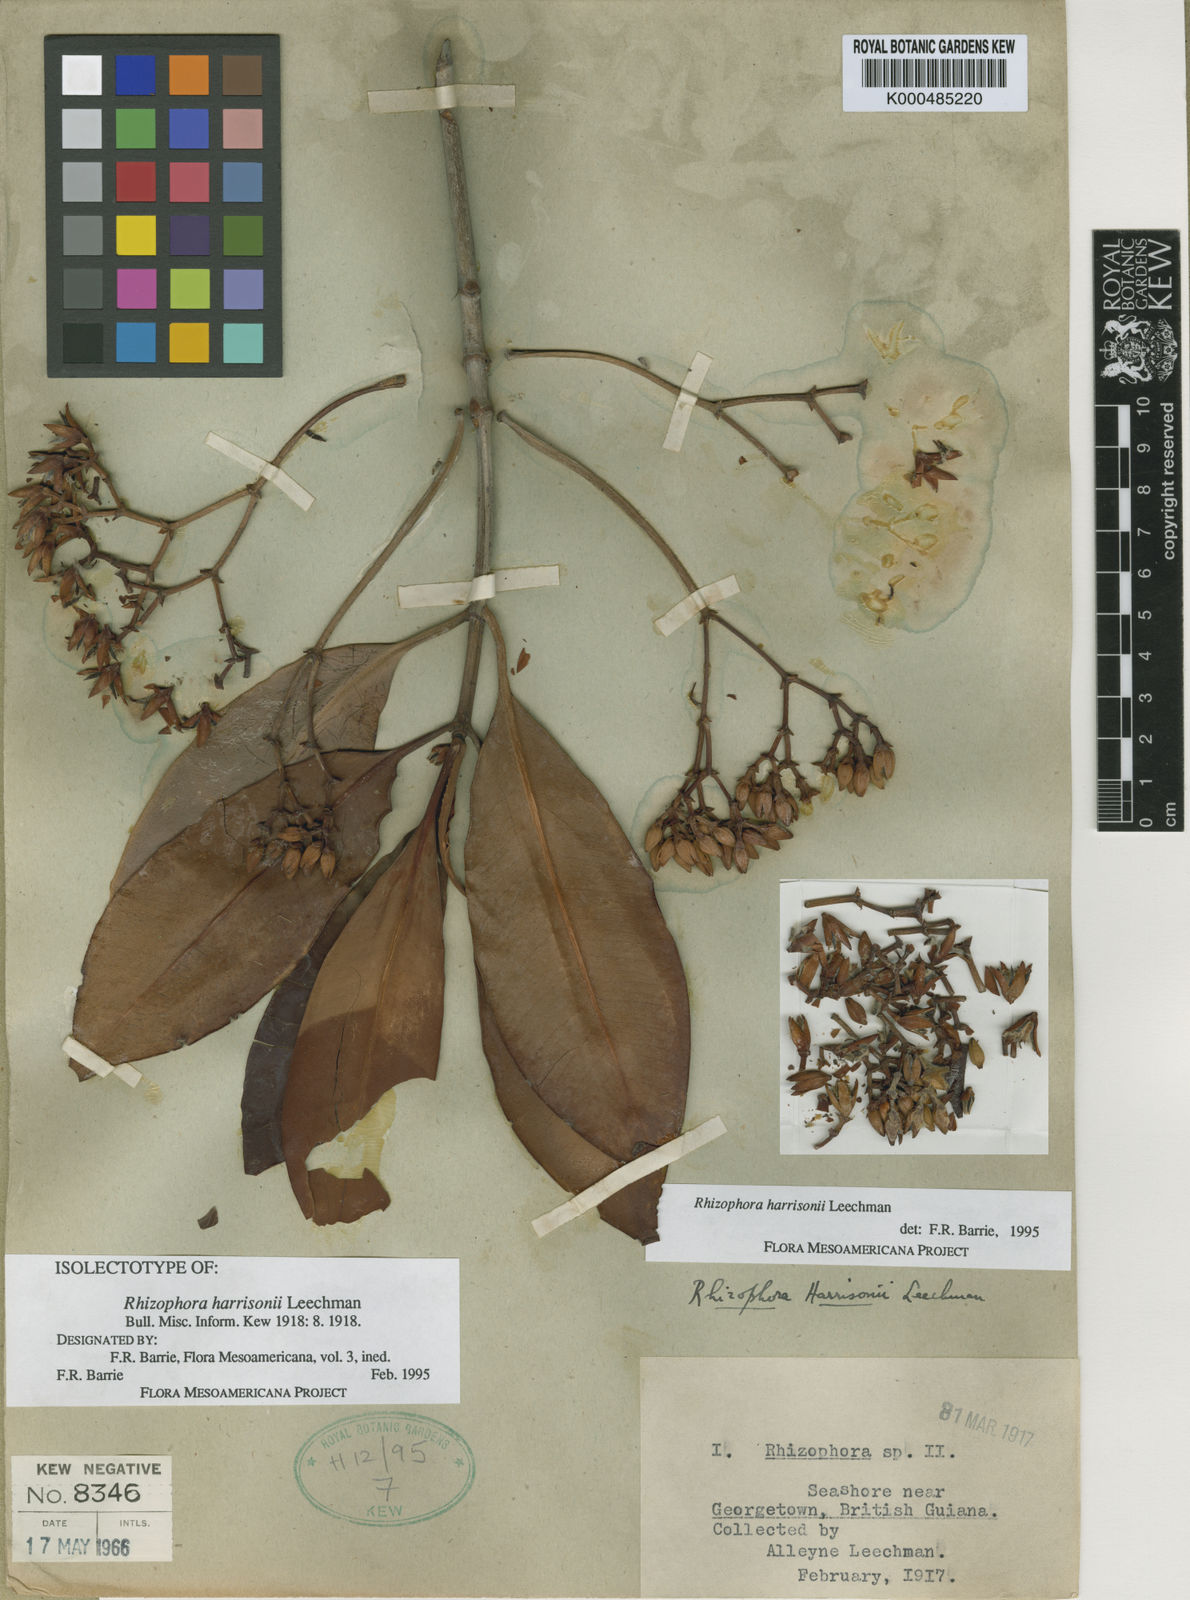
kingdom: Plantae
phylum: Tracheophyta
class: Magnoliopsida
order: Malpighiales
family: Rhizophoraceae
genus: Rhizophora
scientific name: Rhizophora harrisonii
